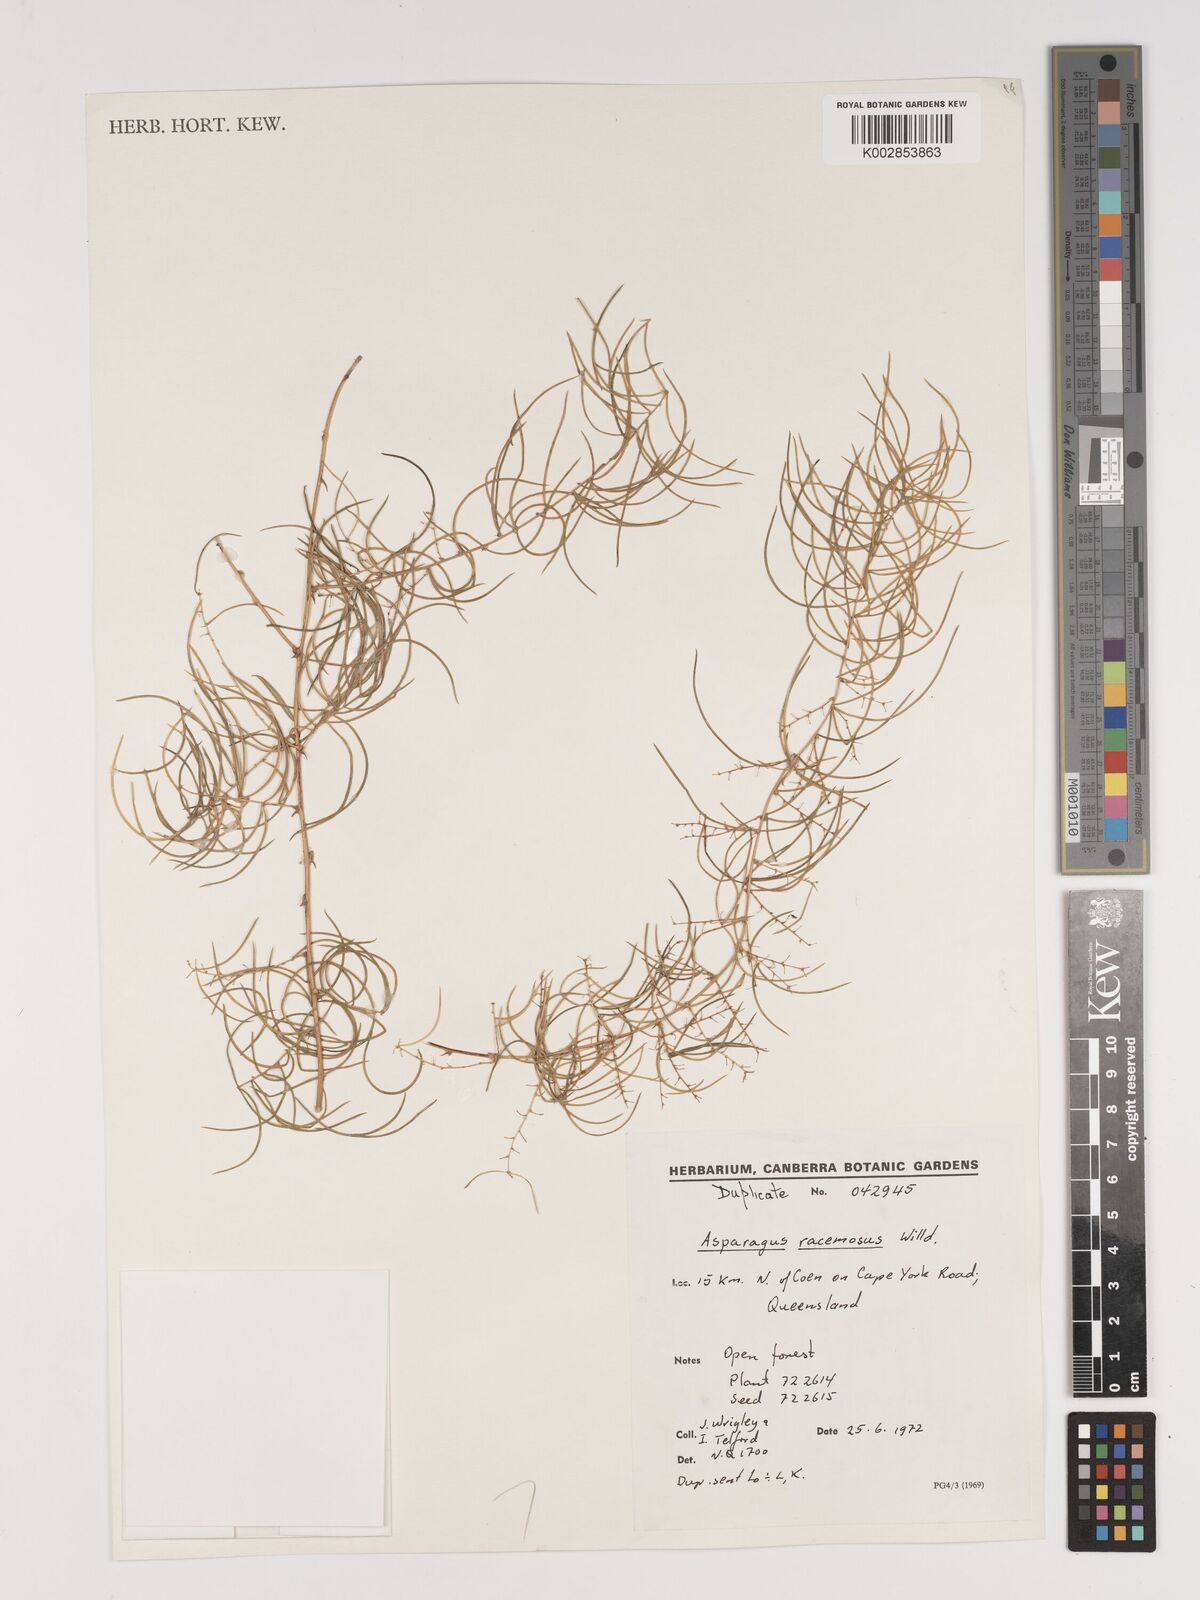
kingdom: Plantae
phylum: Tracheophyta
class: Liliopsida
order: Asparagales
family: Asparagaceae
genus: Asparagus
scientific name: Asparagus racemosus
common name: Asparagus-fern
